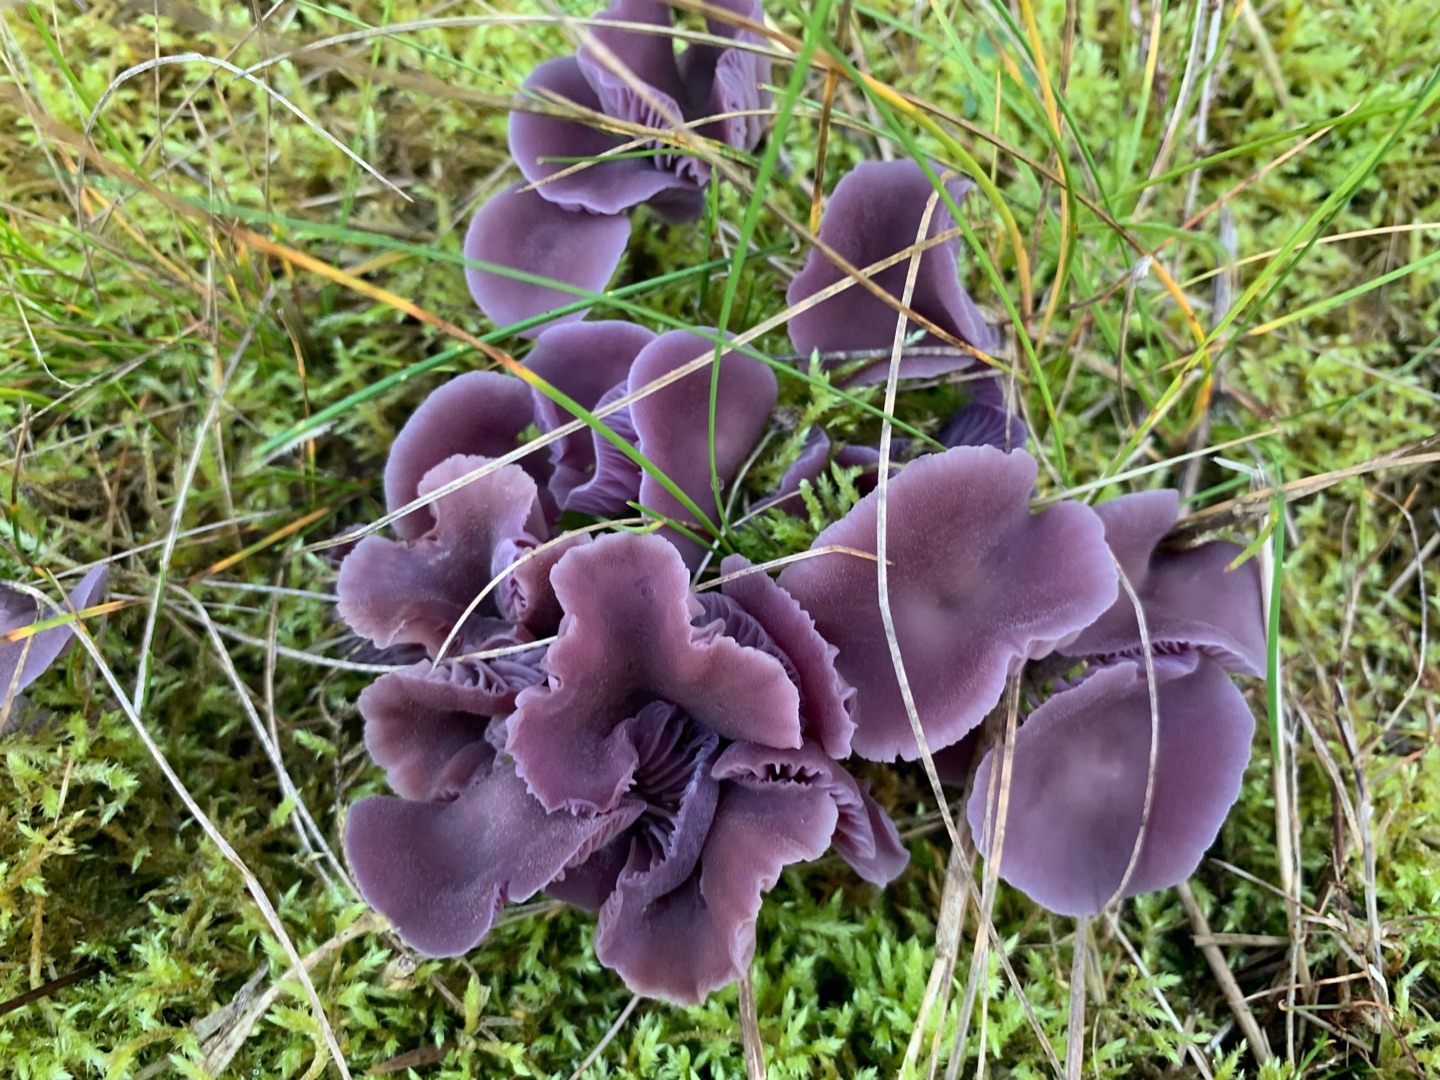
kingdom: Fungi
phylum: Basidiomycota
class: Agaricomycetes
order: Agaricales
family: Hydnangiaceae
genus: Laccaria
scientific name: Laccaria amethystina
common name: Violet ametysthat
